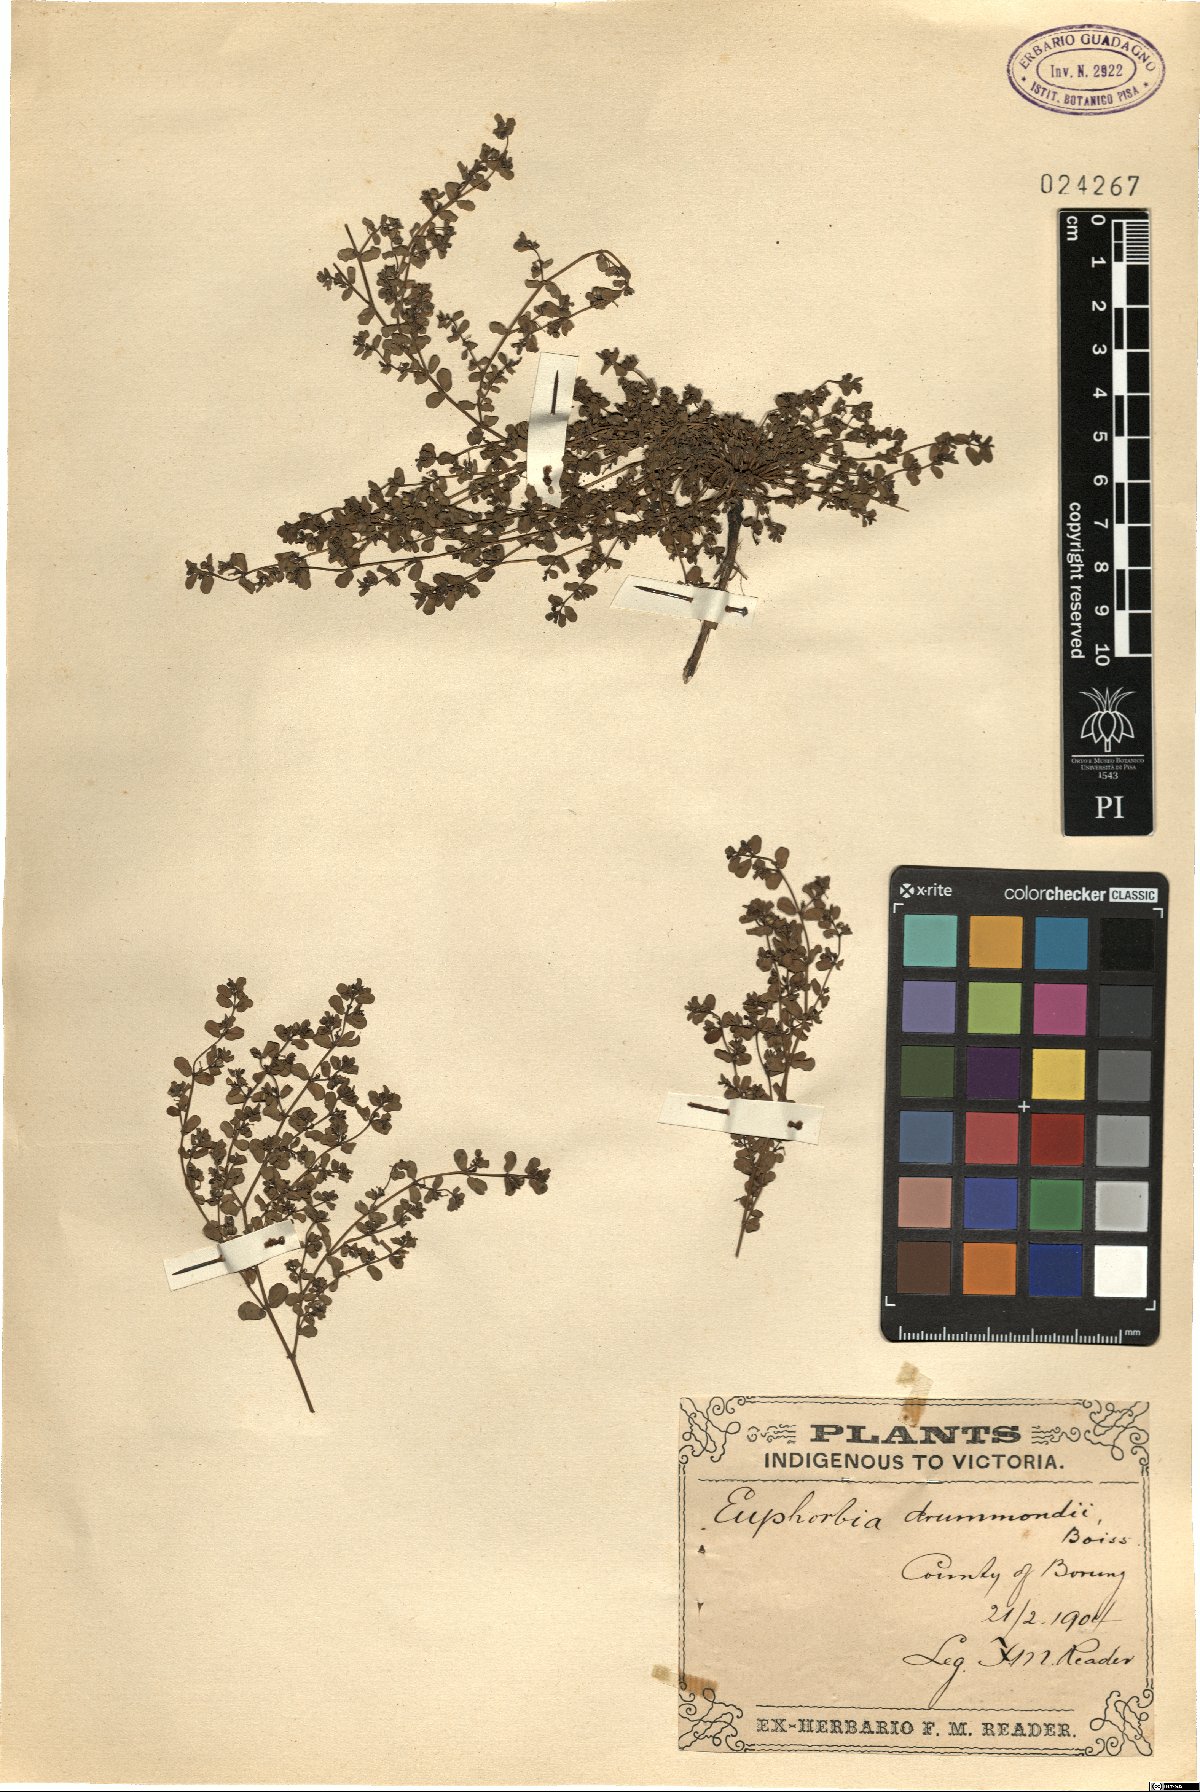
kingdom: Plantae
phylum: Tracheophyta
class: Magnoliopsida
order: Malpighiales
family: Euphorbiaceae
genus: Euphorbia
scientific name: Euphorbia drummondii
